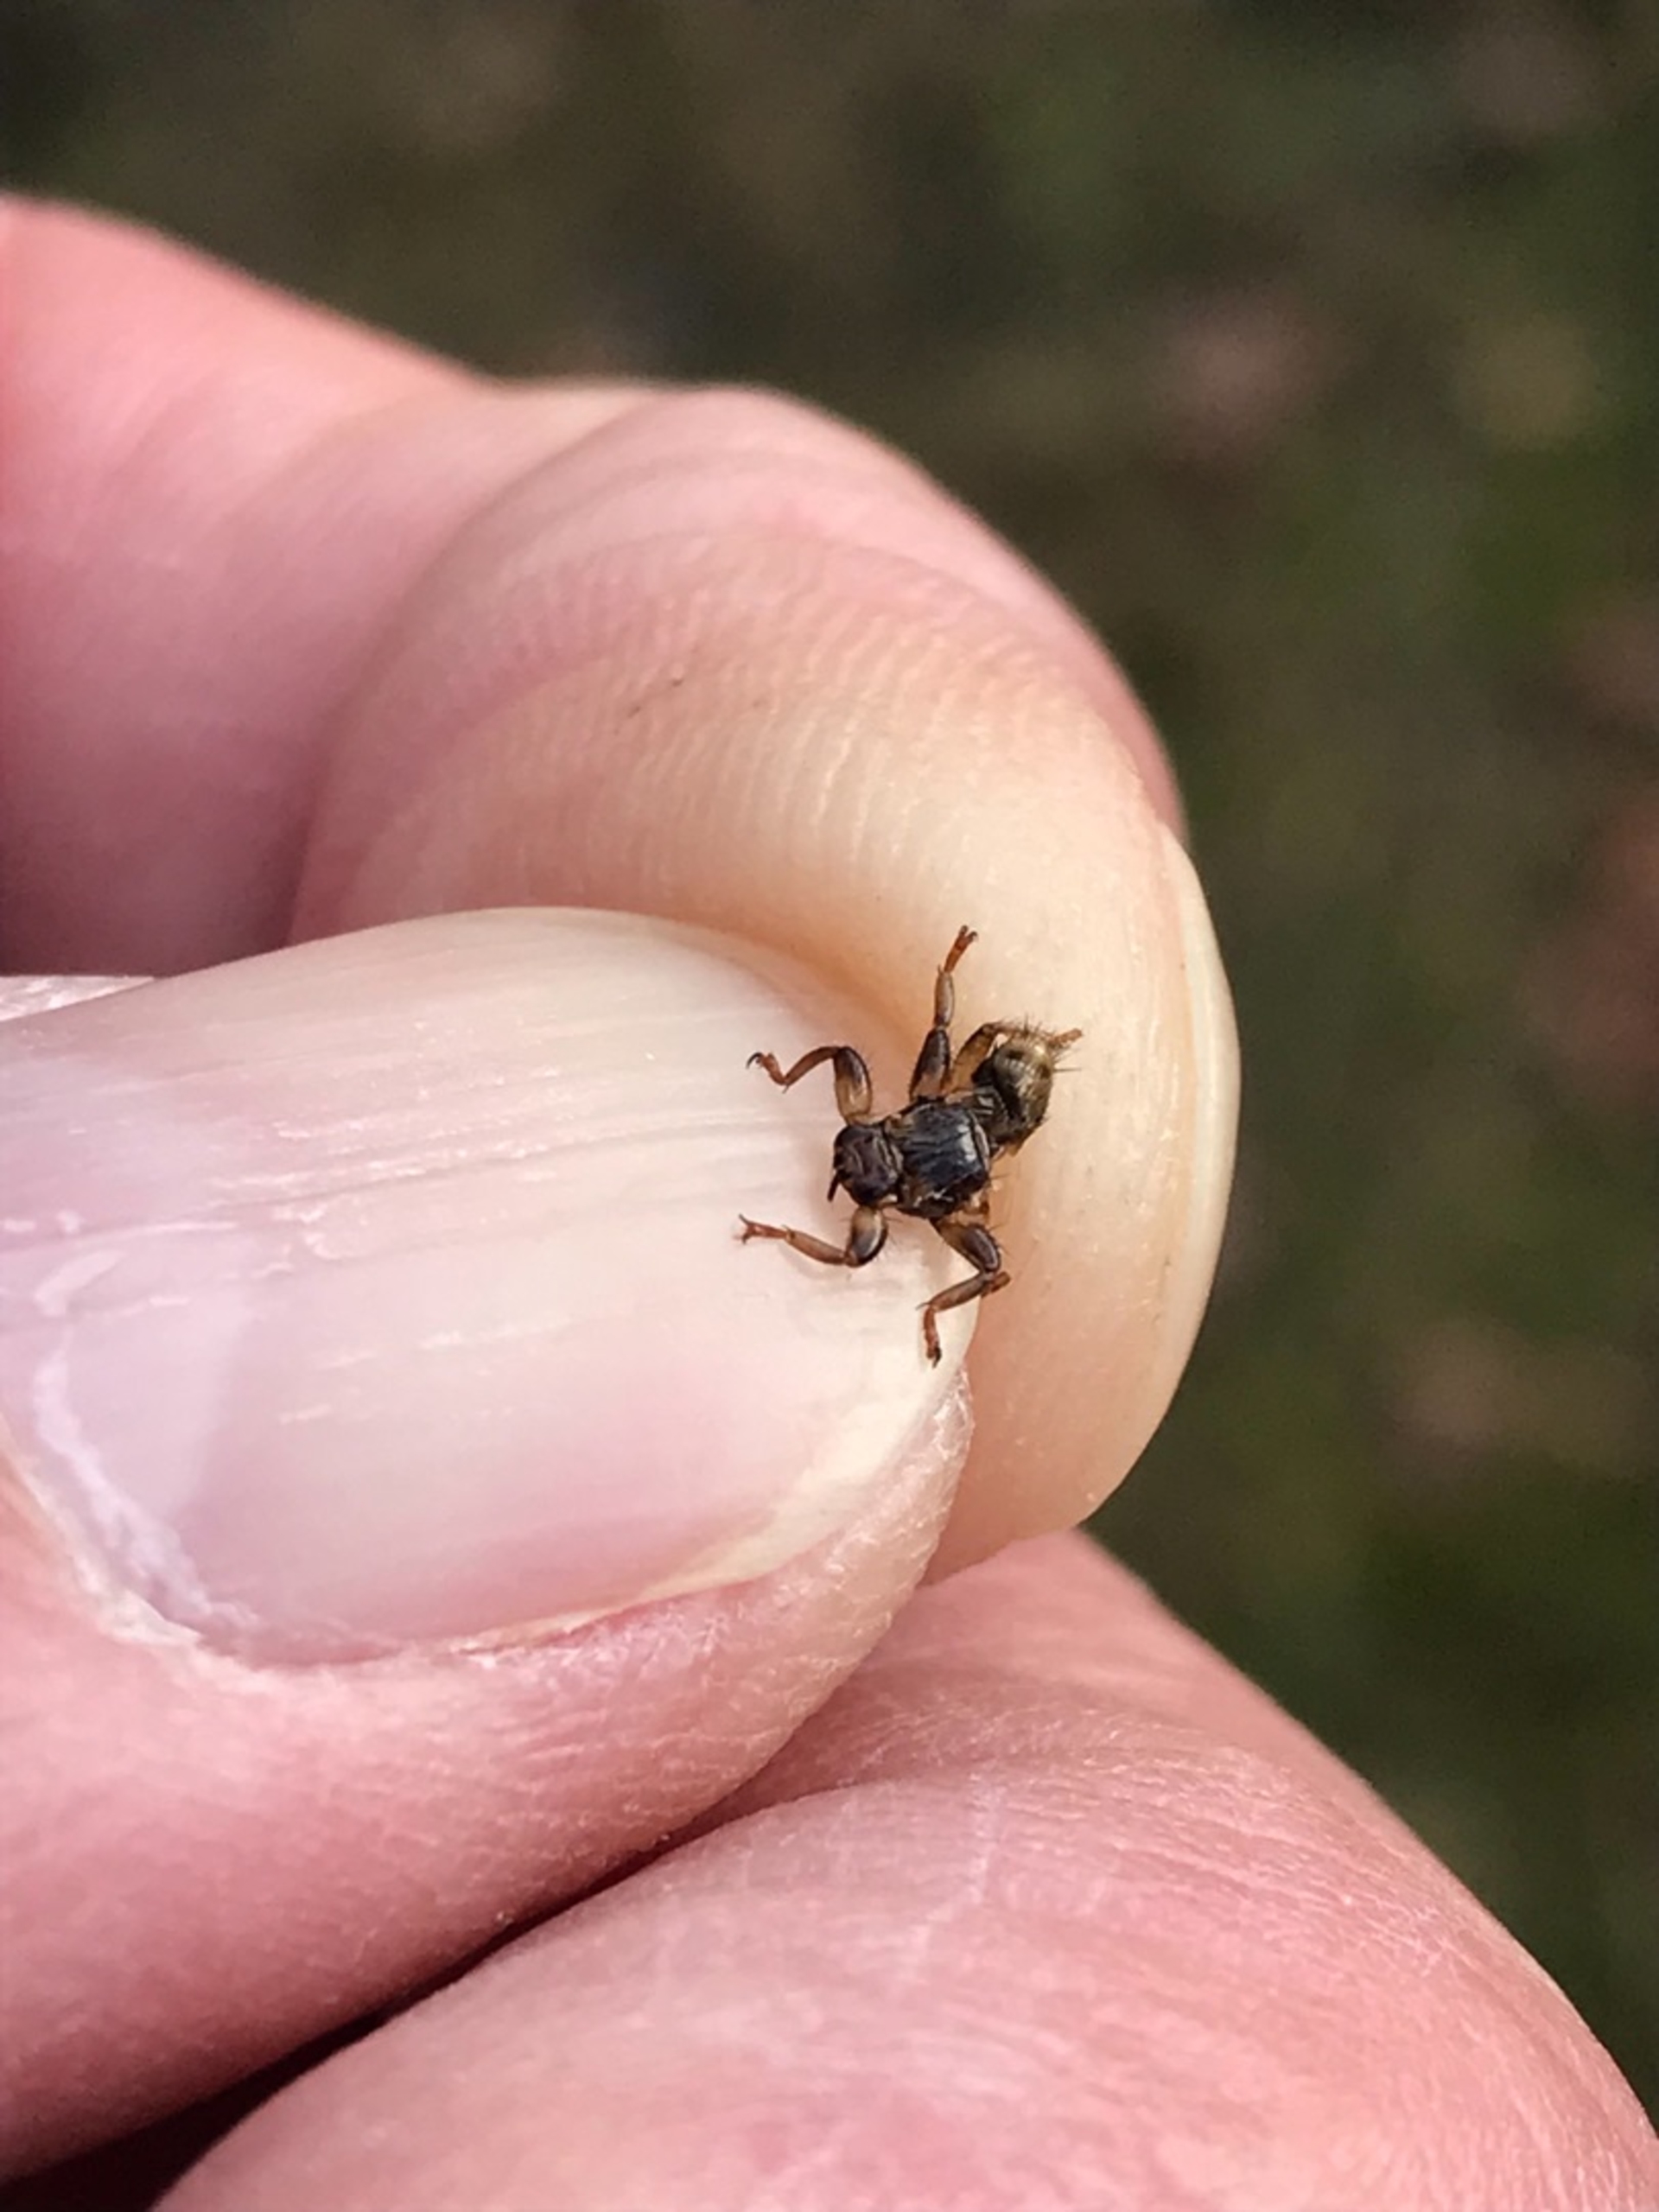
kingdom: Animalia
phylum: Arthropoda
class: Insecta
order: Diptera
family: Hippoboscidae
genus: Lipoptena
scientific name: Lipoptena cervi
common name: Hjortelus
